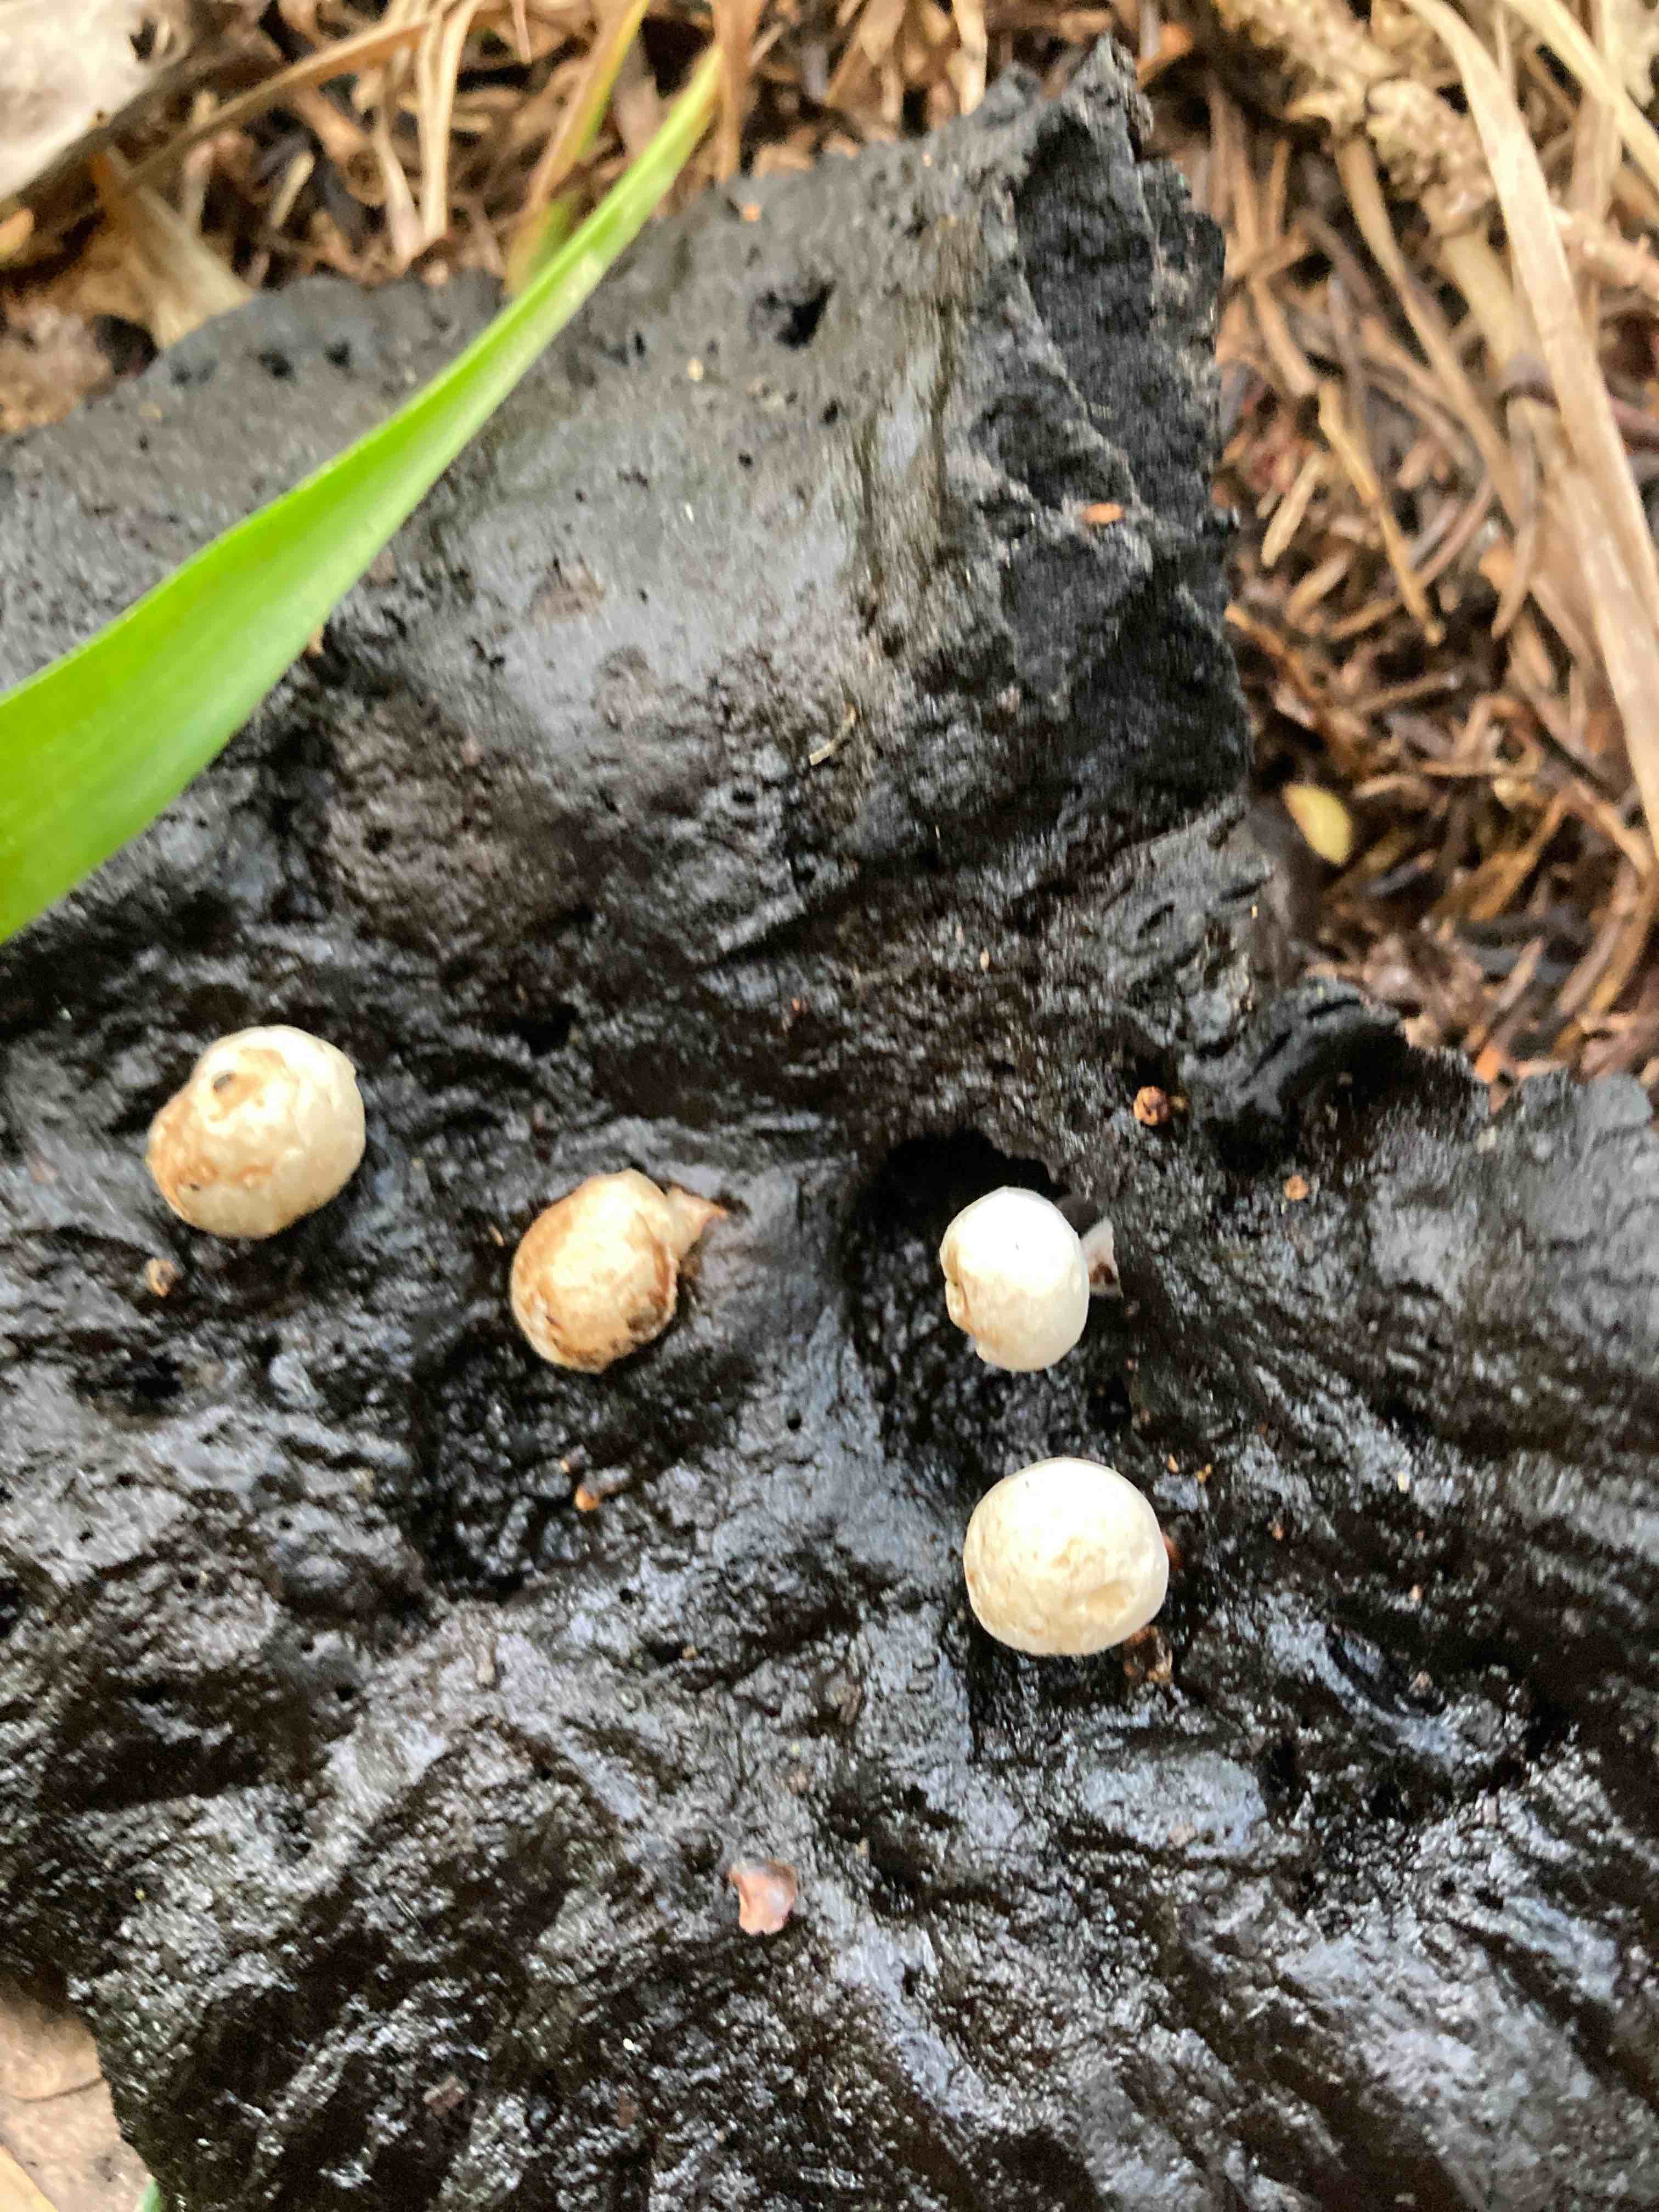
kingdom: Fungi
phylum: Basidiomycota
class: Agaricomycetes
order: Agaricales
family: Lyophyllaceae
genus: Asterophora
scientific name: Asterophora lycoperdoides
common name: brunpudret snyltehat
